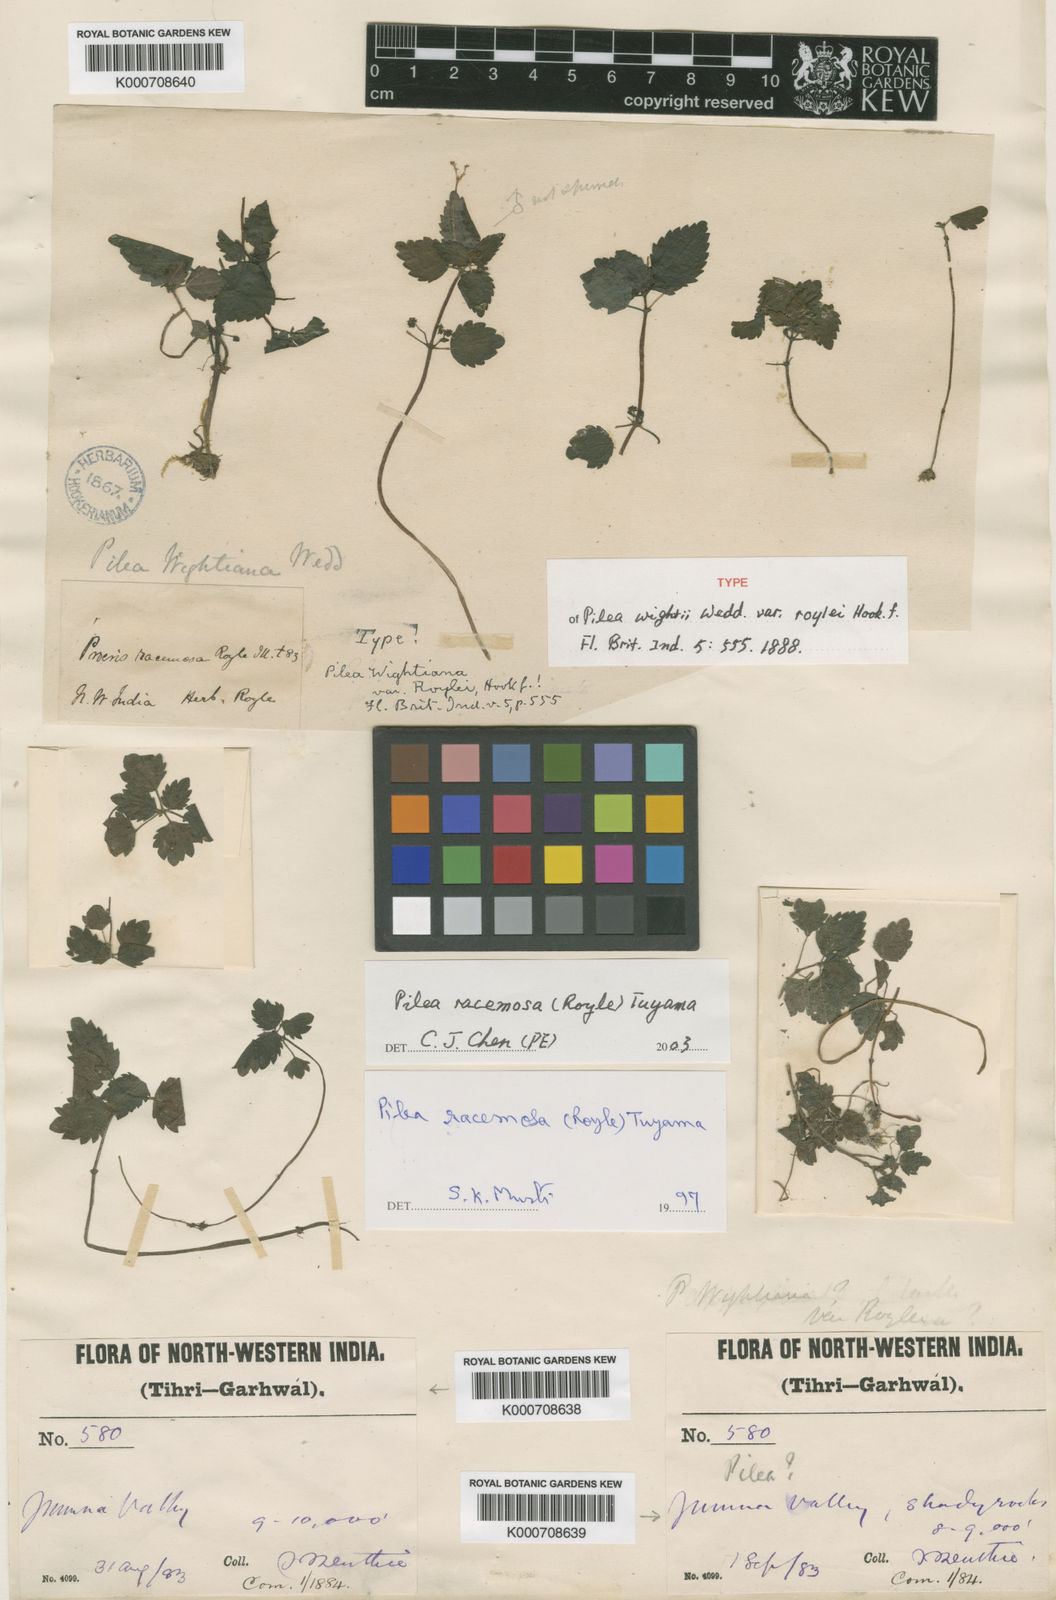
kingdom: Plantae
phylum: Tracheophyta
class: Magnoliopsida
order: Rosales
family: Urticaceae
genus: Pilea
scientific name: Pilea racemosa
